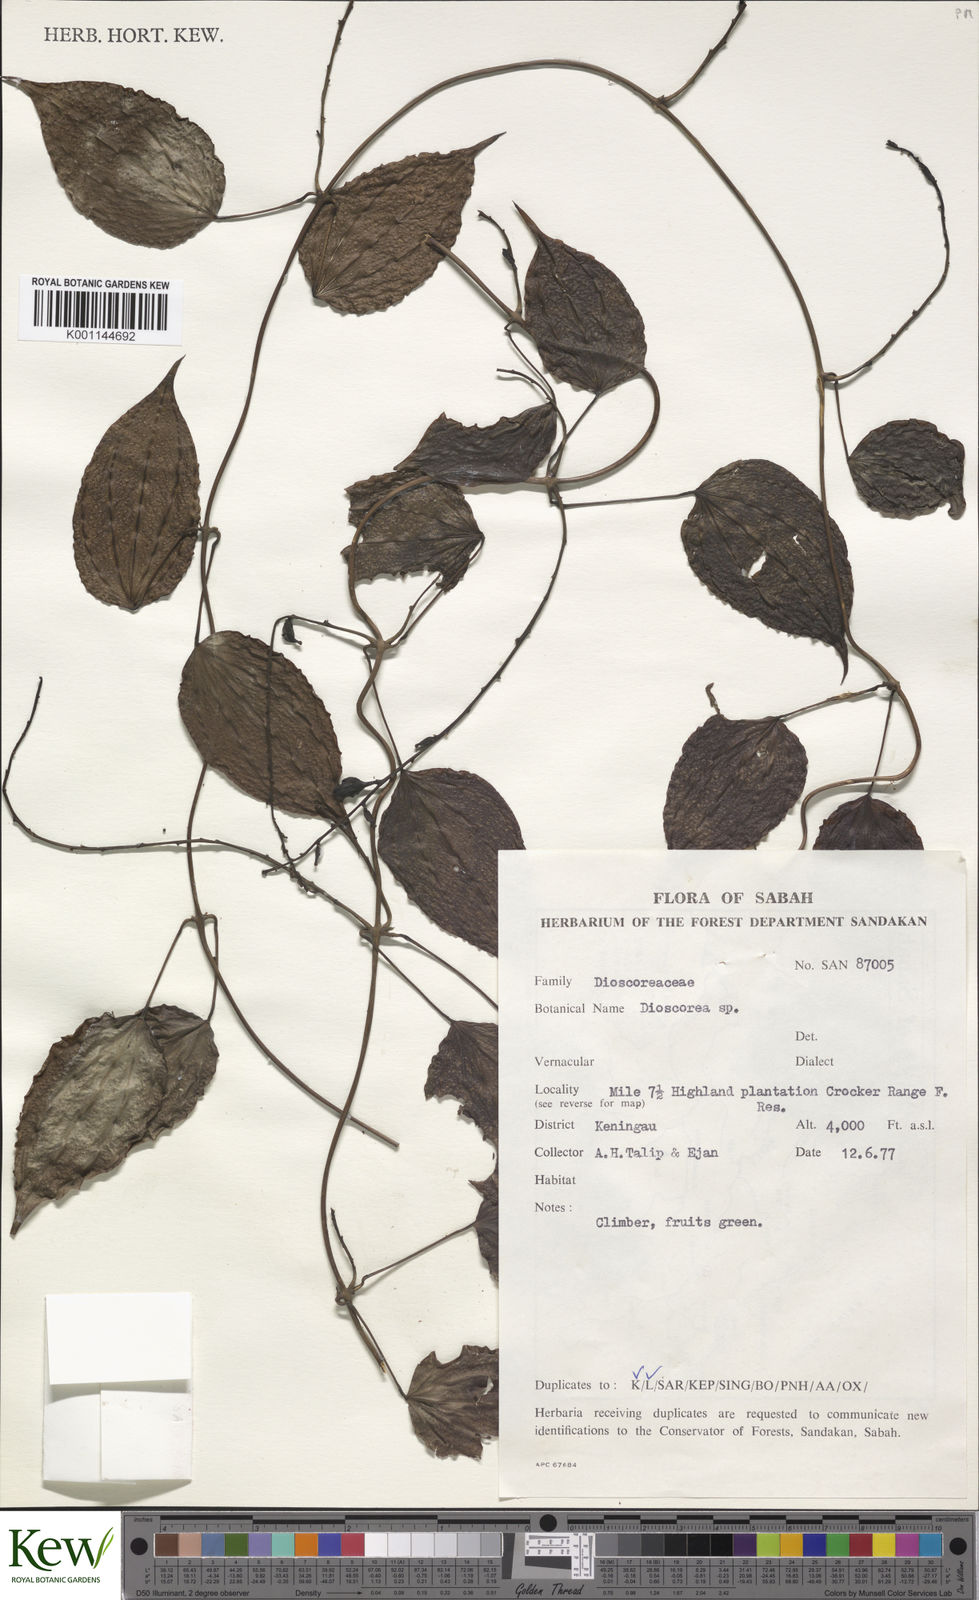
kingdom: Plantae
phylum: Tracheophyta
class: Liliopsida
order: Dioscoreales
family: Dioscoreaceae
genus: Dioscorea
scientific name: Dioscorea
